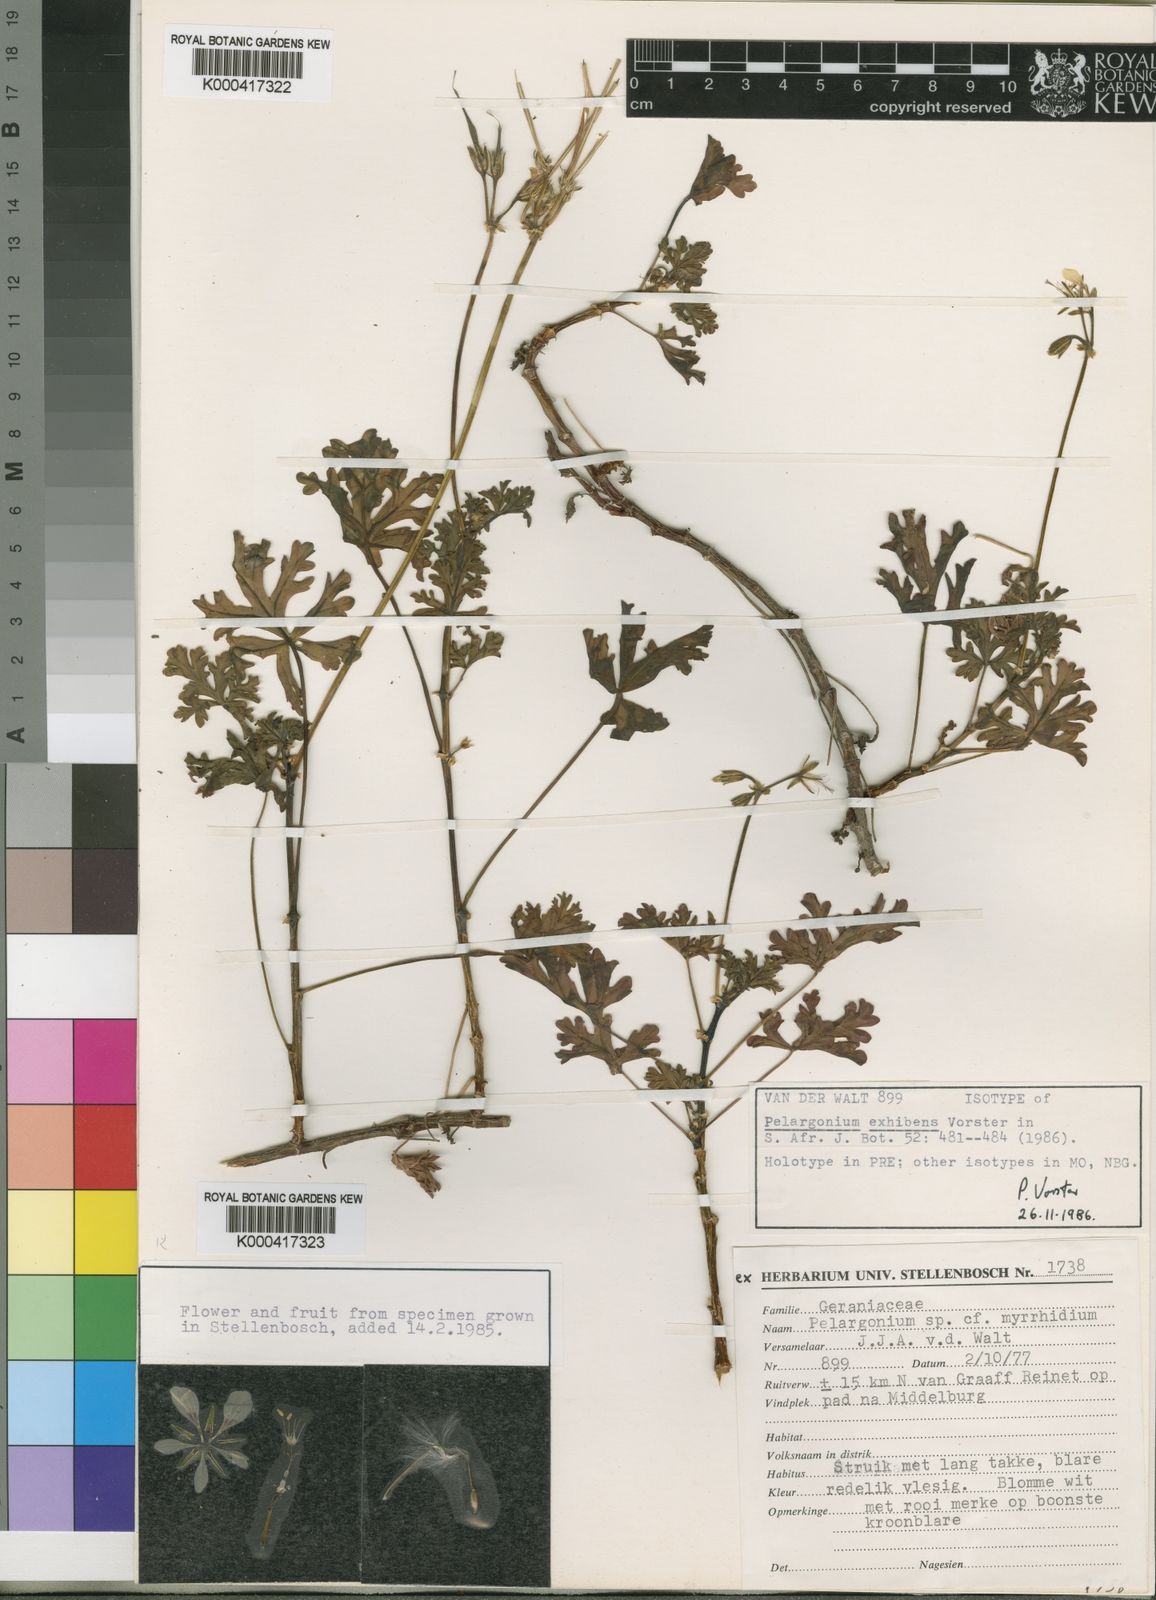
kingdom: Plantae
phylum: Tracheophyta
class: Magnoliopsida
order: Geraniales
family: Geraniaceae
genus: Pelargonium
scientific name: Pelargonium exhibens
